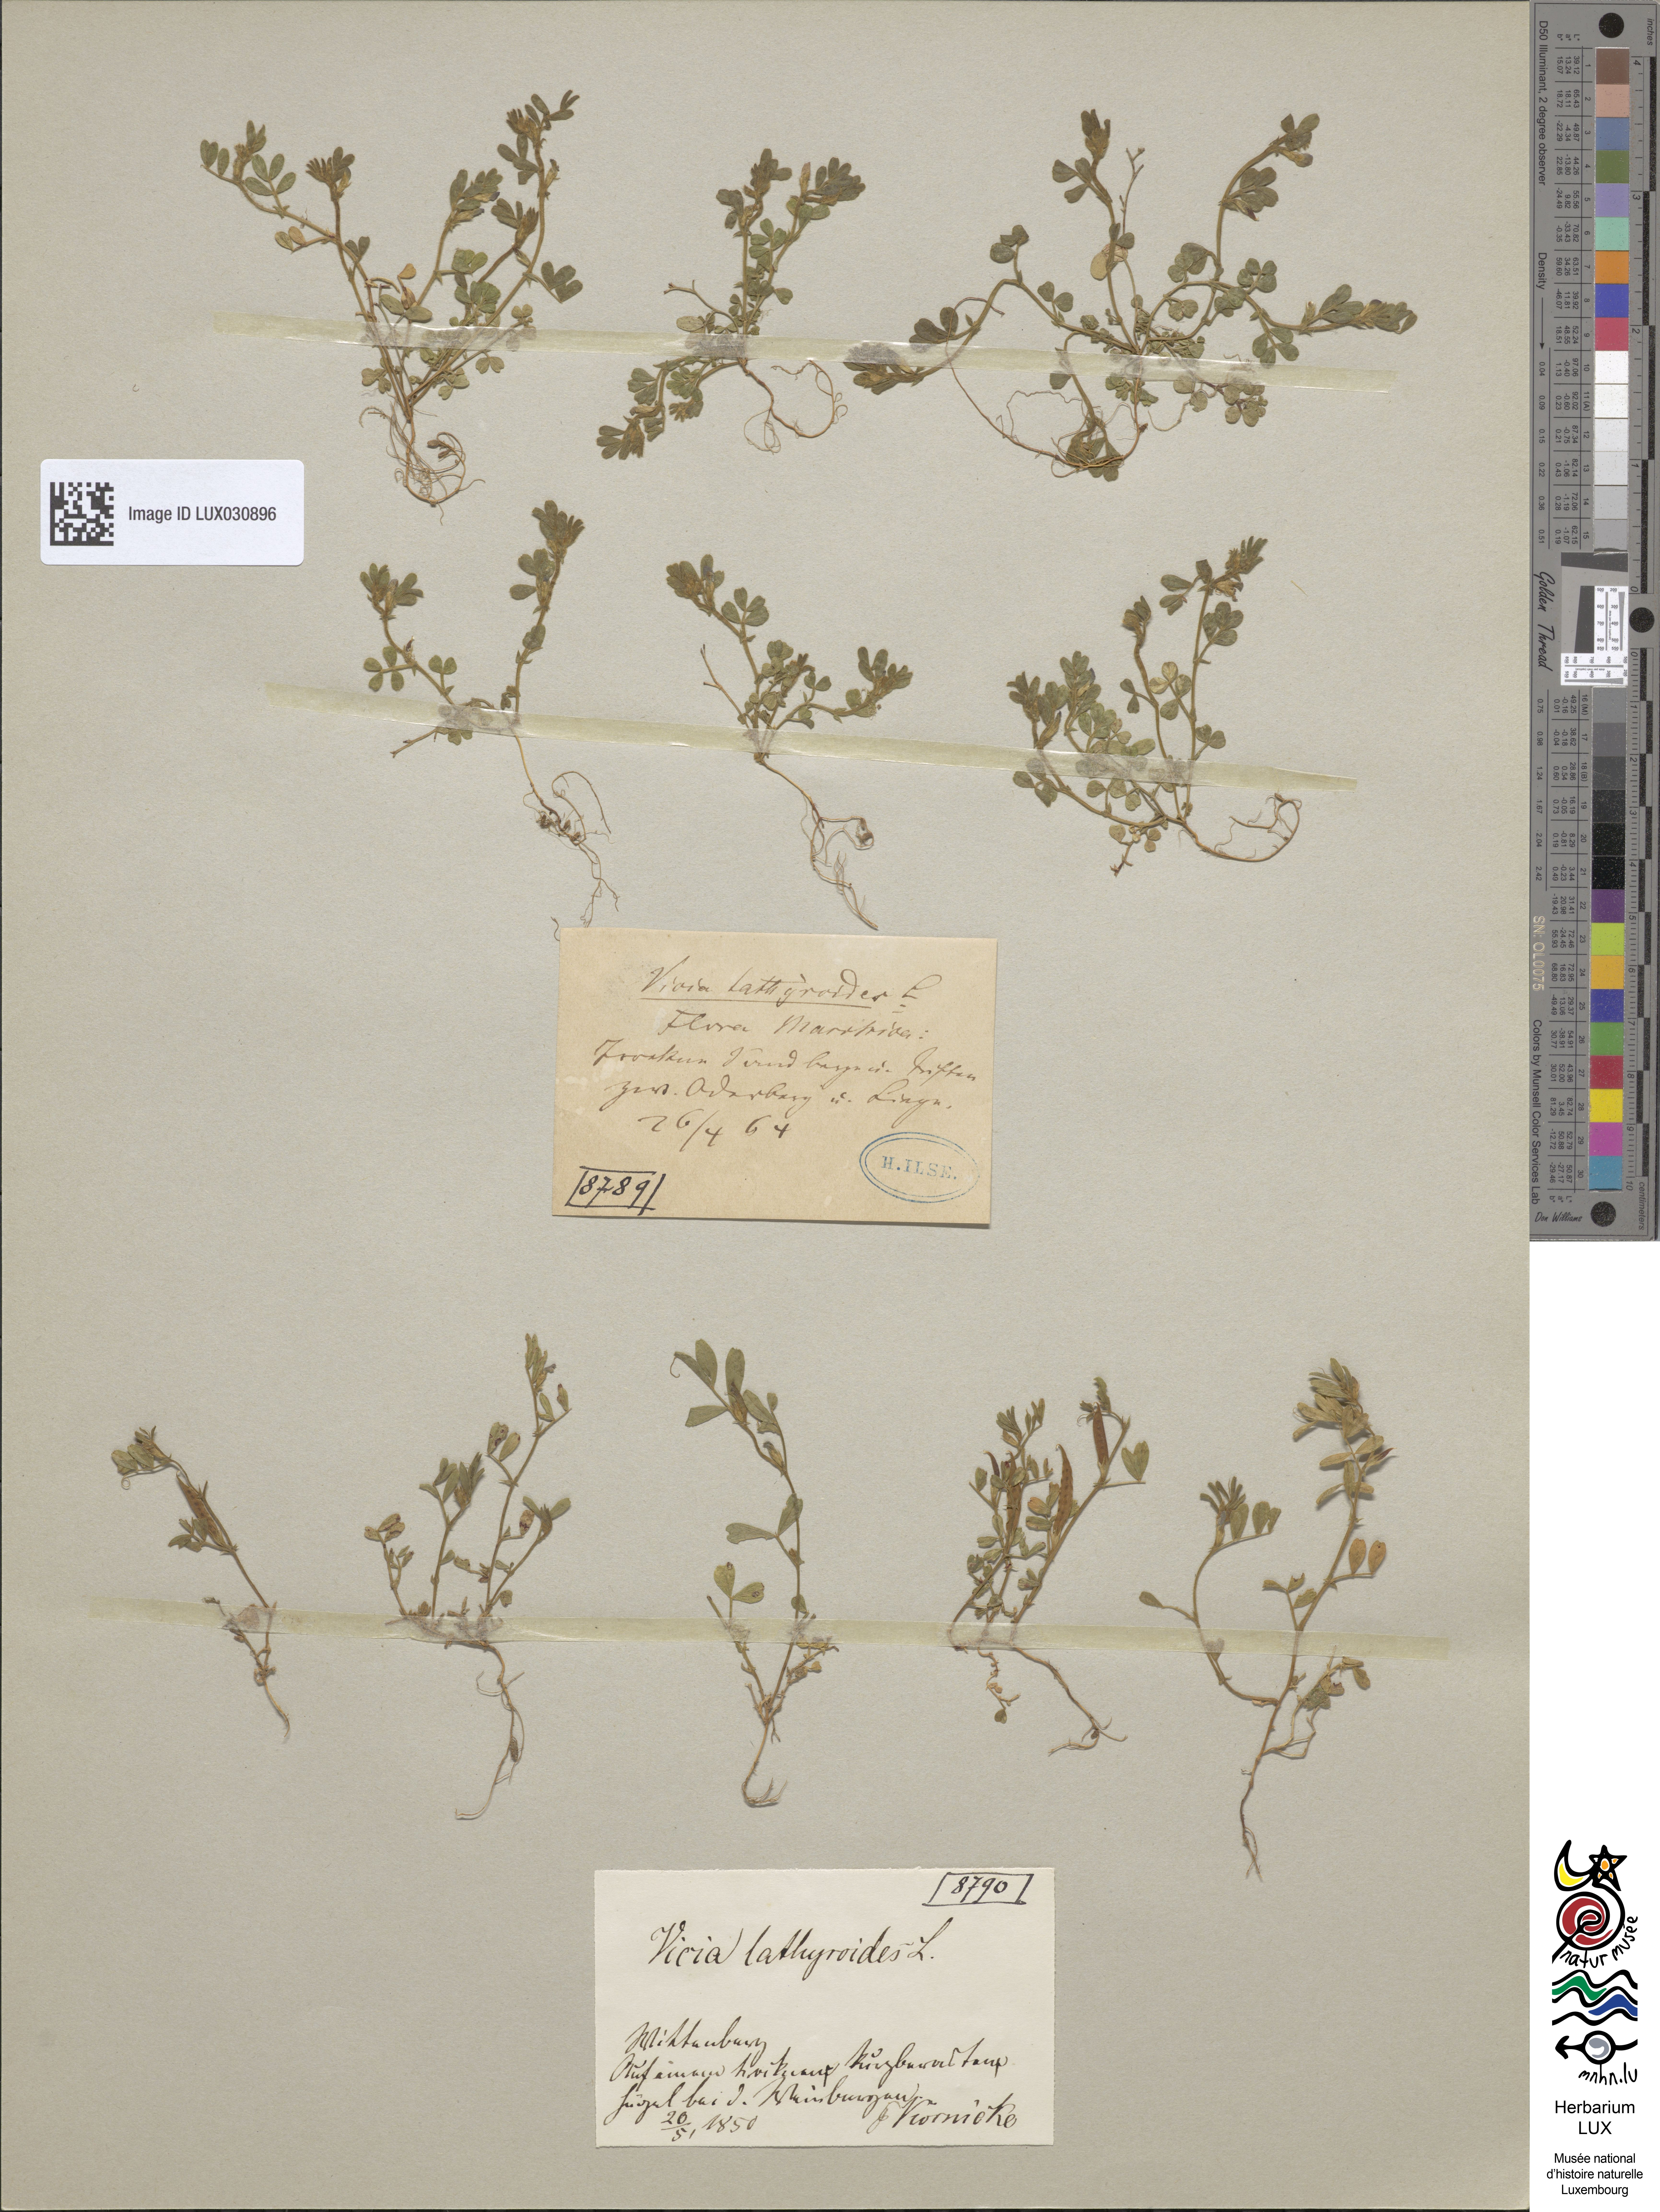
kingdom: Plantae
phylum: Tracheophyta
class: Magnoliopsida
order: Fabales
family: Fabaceae
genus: Vicia
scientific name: Vicia lathyroides
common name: Spring vetch
